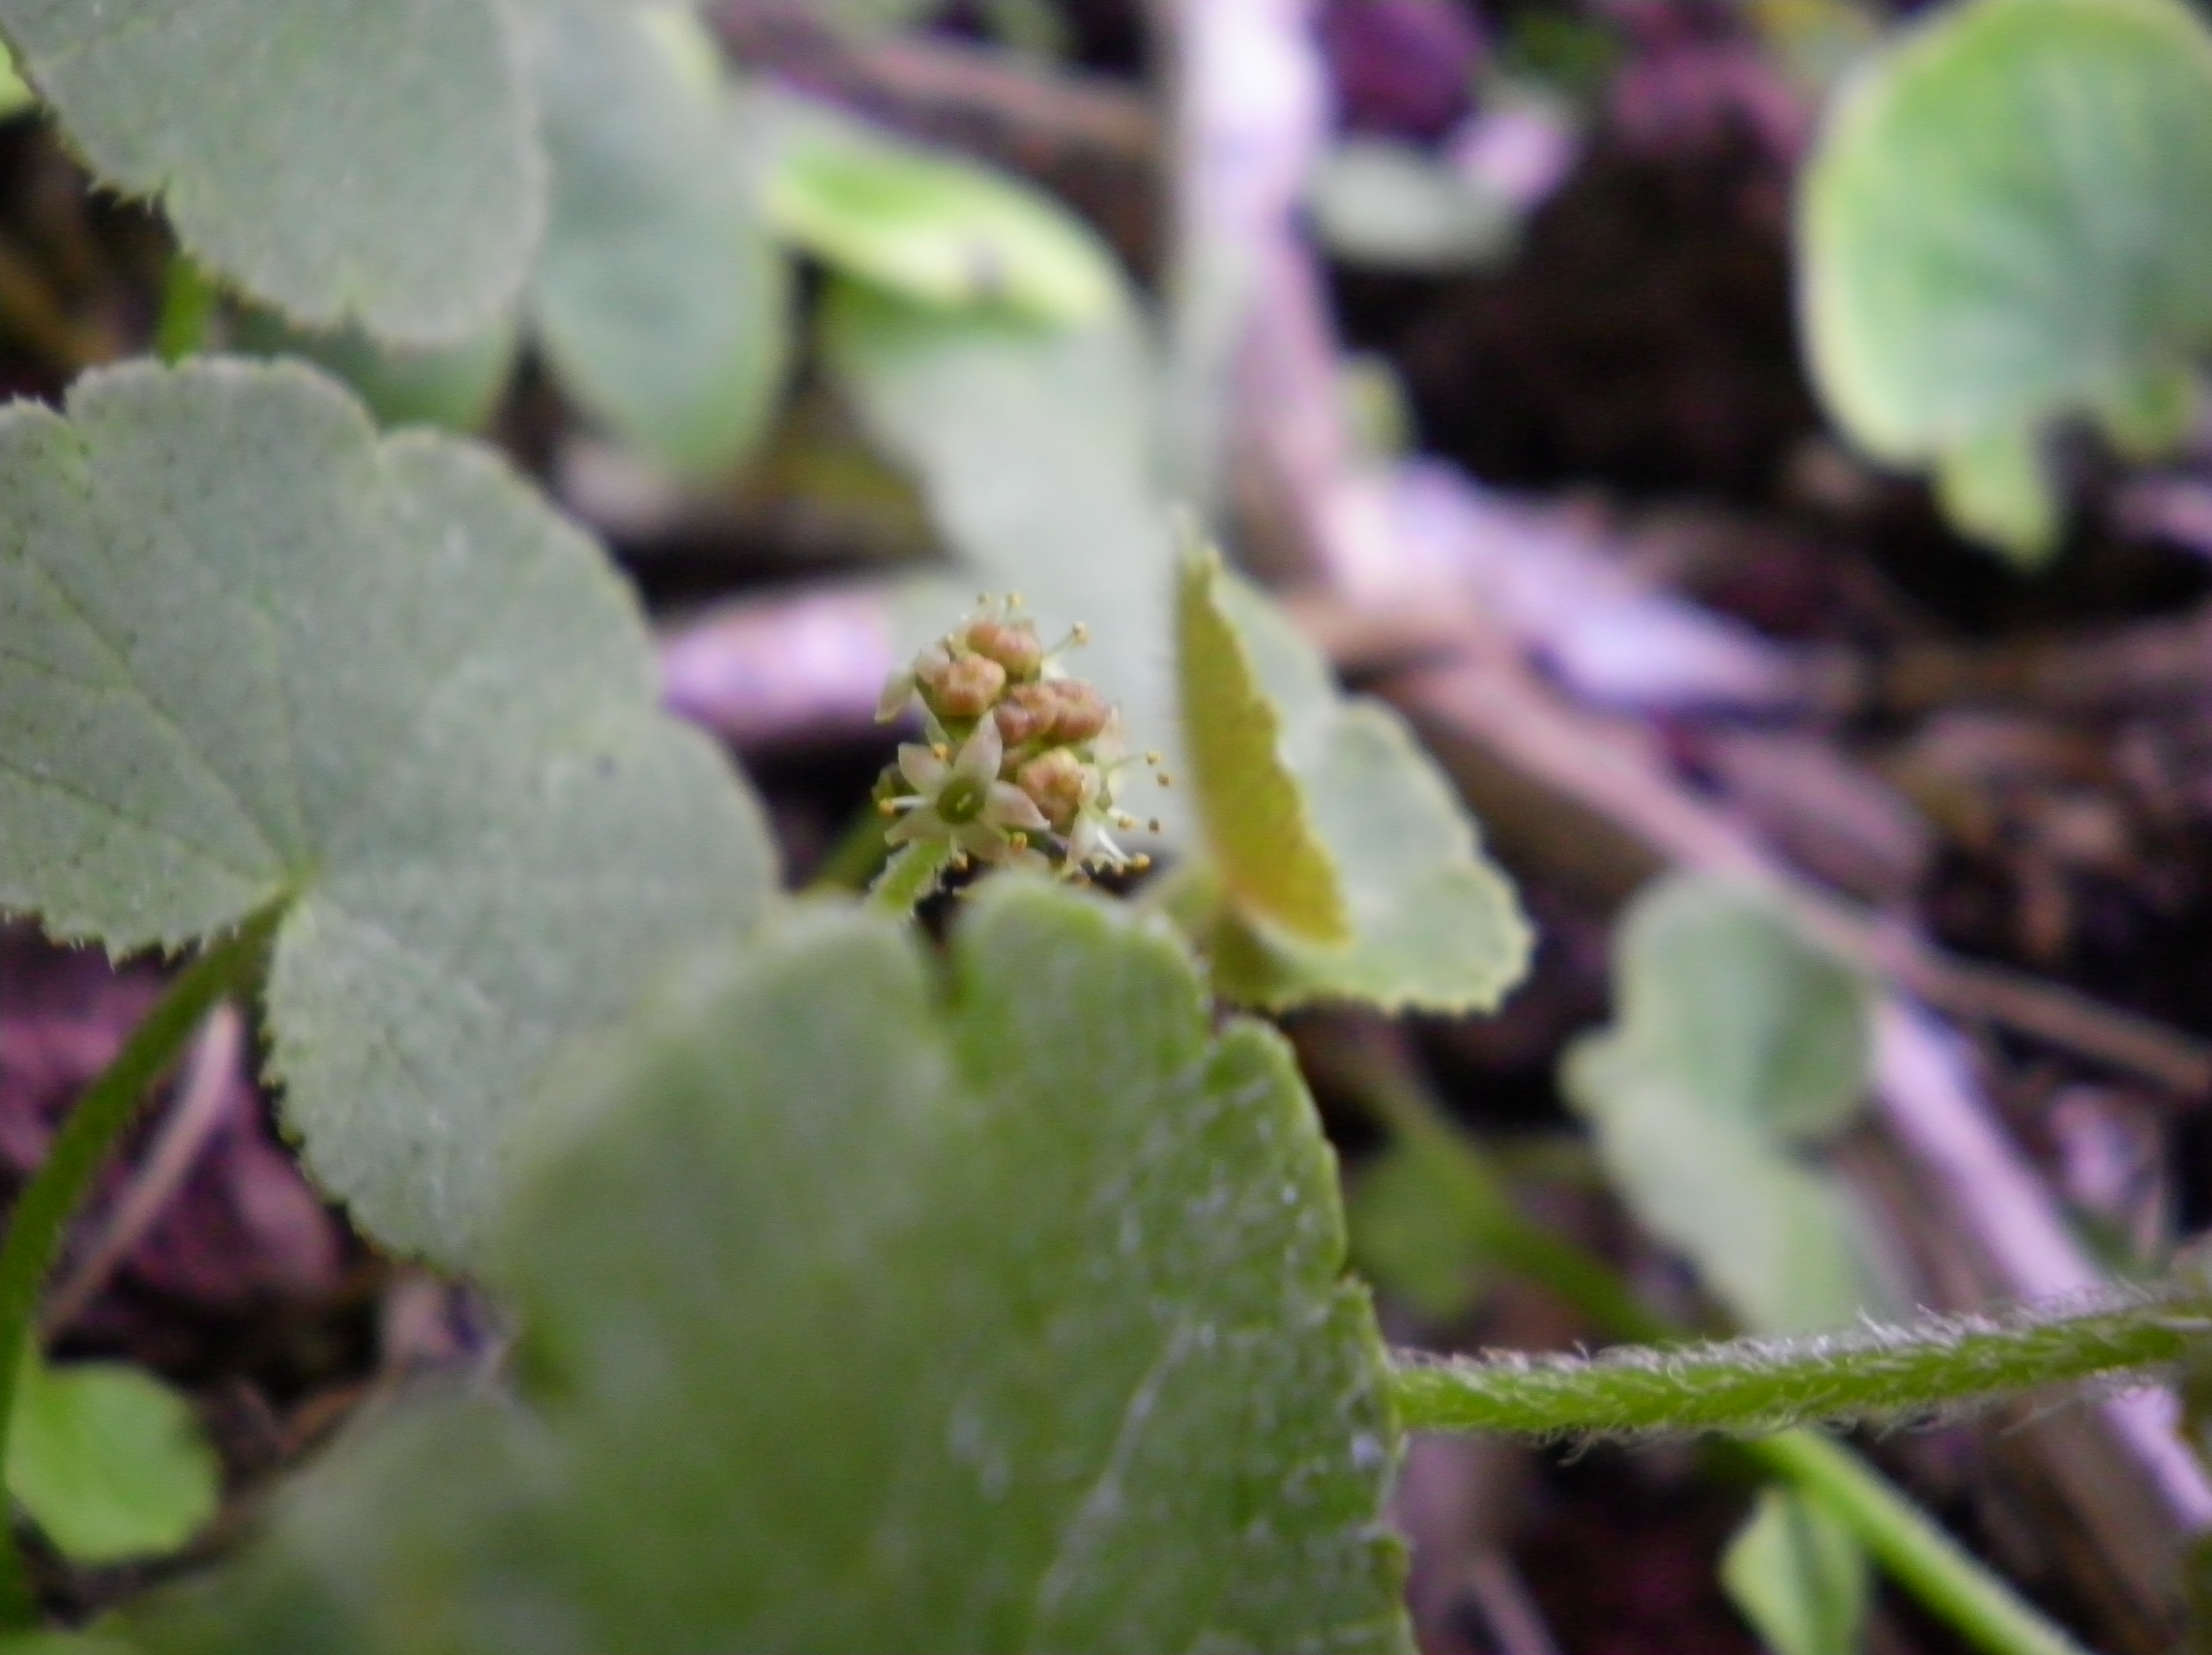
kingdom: Plantae
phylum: Tracheophyta
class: Magnoliopsida
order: Apiales
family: Araliaceae
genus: Hydrocotyle
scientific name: Hydrocotyle robusta
